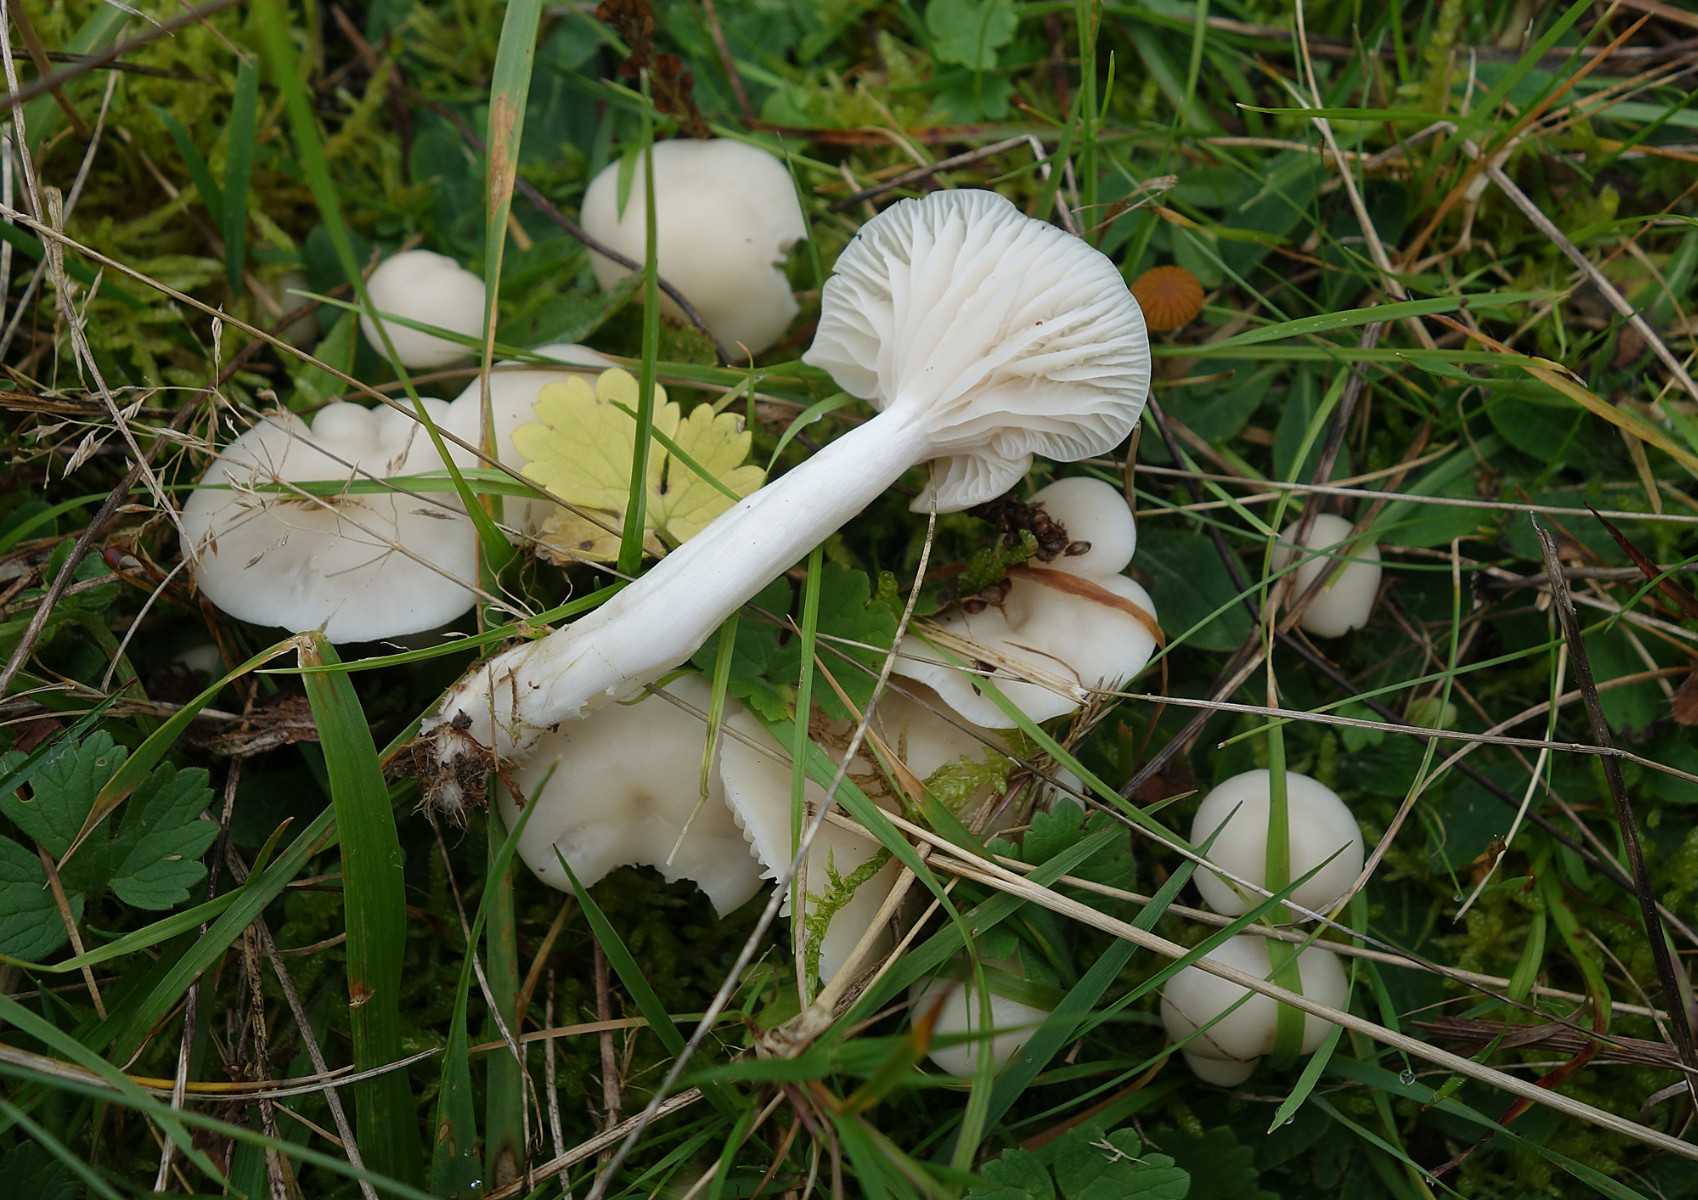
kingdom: Fungi
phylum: Basidiomycota
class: Agaricomycetes
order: Agaricales
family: Hygrophoraceae
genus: Cuphophyllus
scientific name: Cuphophyllus virgineus
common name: snehvid vokshat
